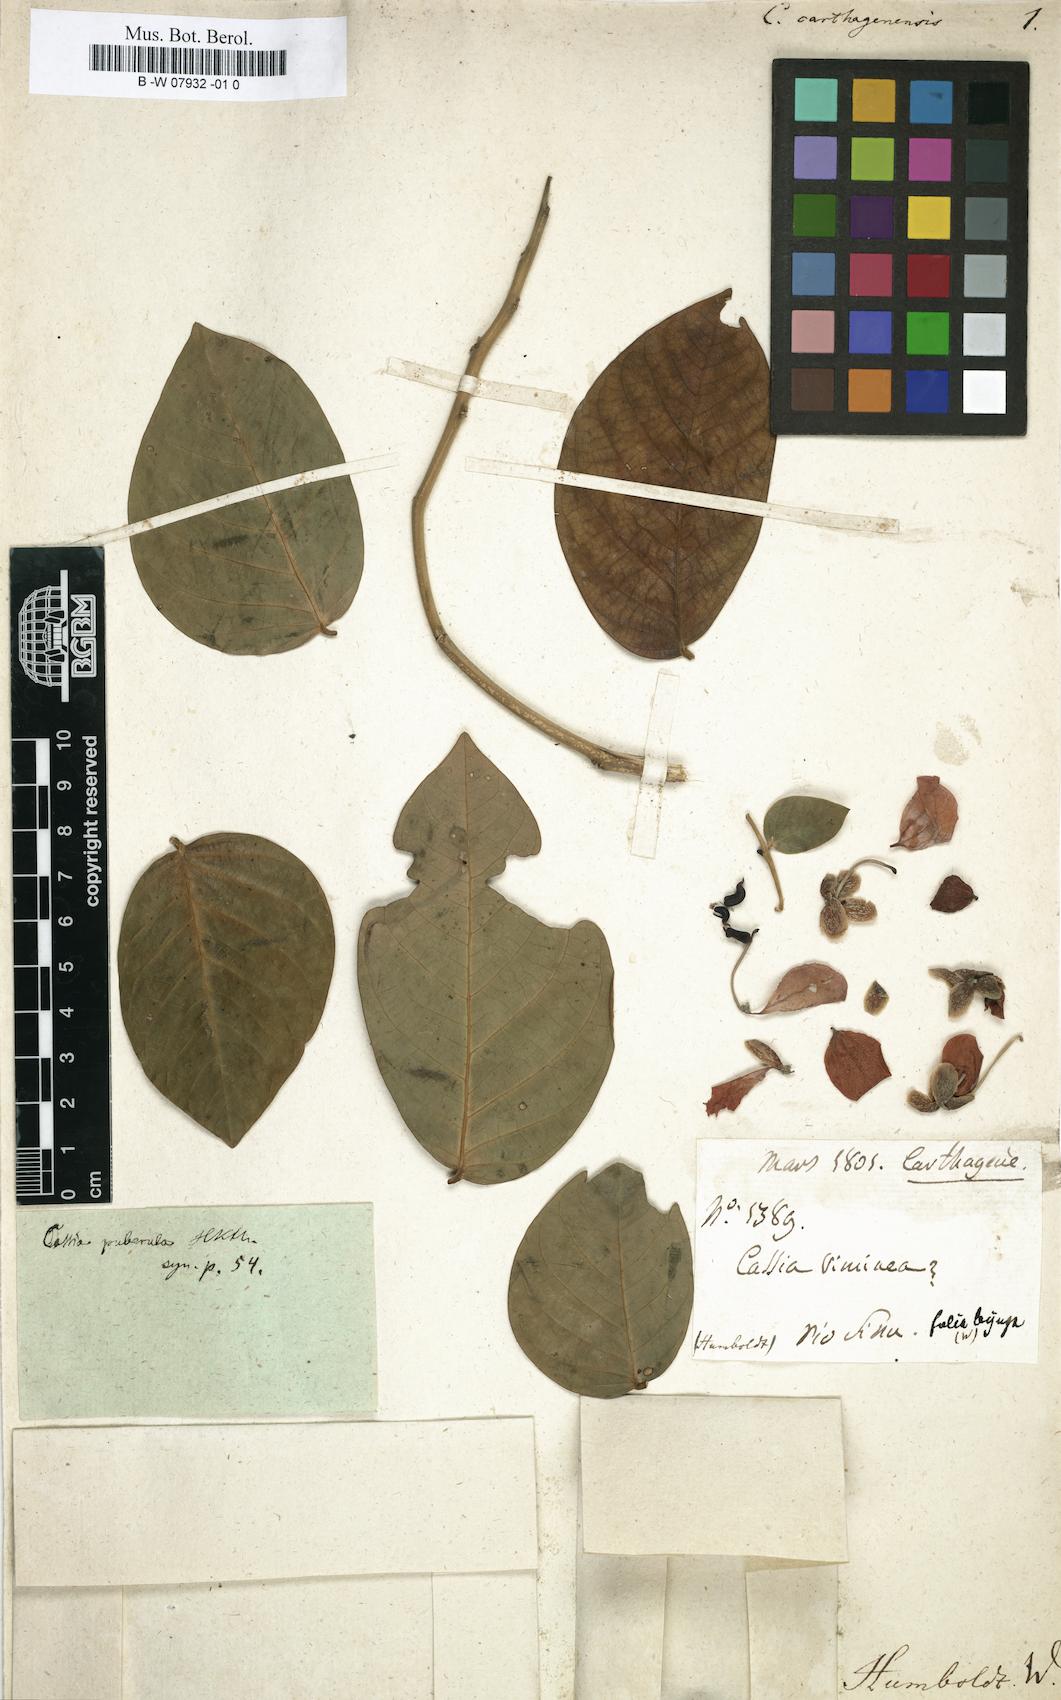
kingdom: Plantae
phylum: Tracheophyta
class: Magnoliopsida
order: Fabales
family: Fabaceae
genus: Senna
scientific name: Senna bacillaris
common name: West indian showertree
